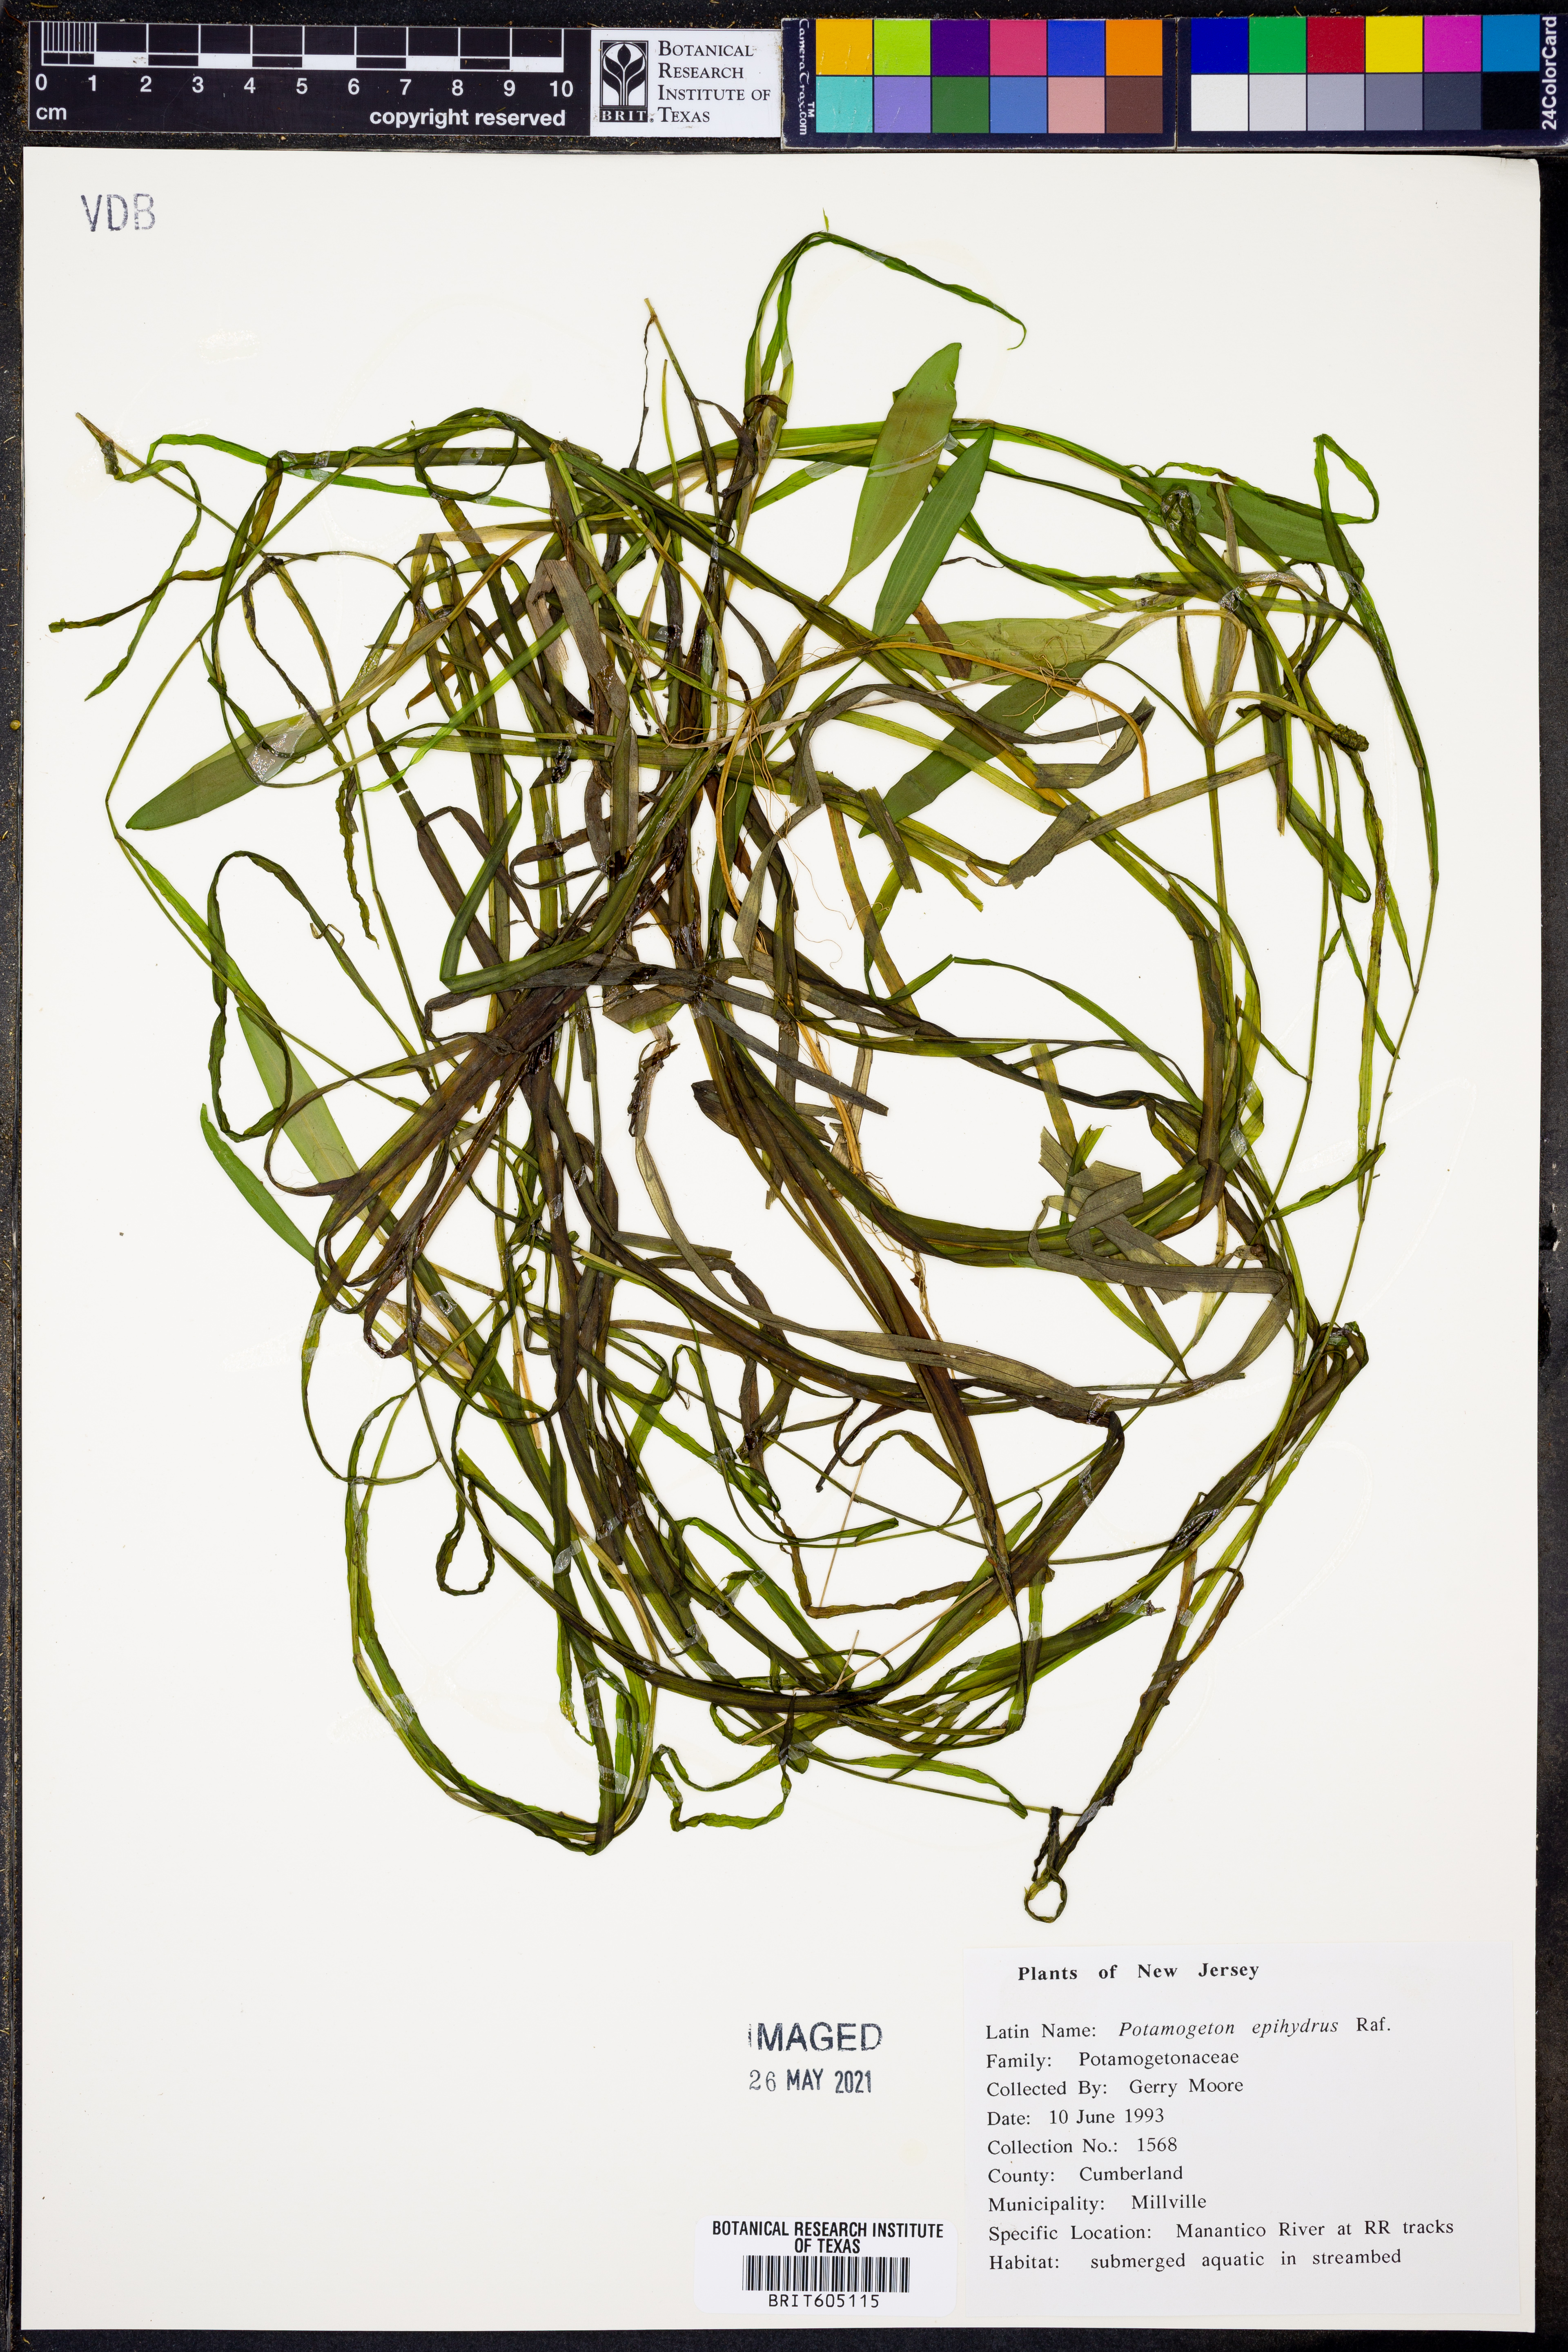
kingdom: Plantae
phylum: Tracheophyta
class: Liliopsida
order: Alismatales
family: Potamogetonaceae
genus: Potamogeton
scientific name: Potamogeton epihydrus
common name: American pondweed
